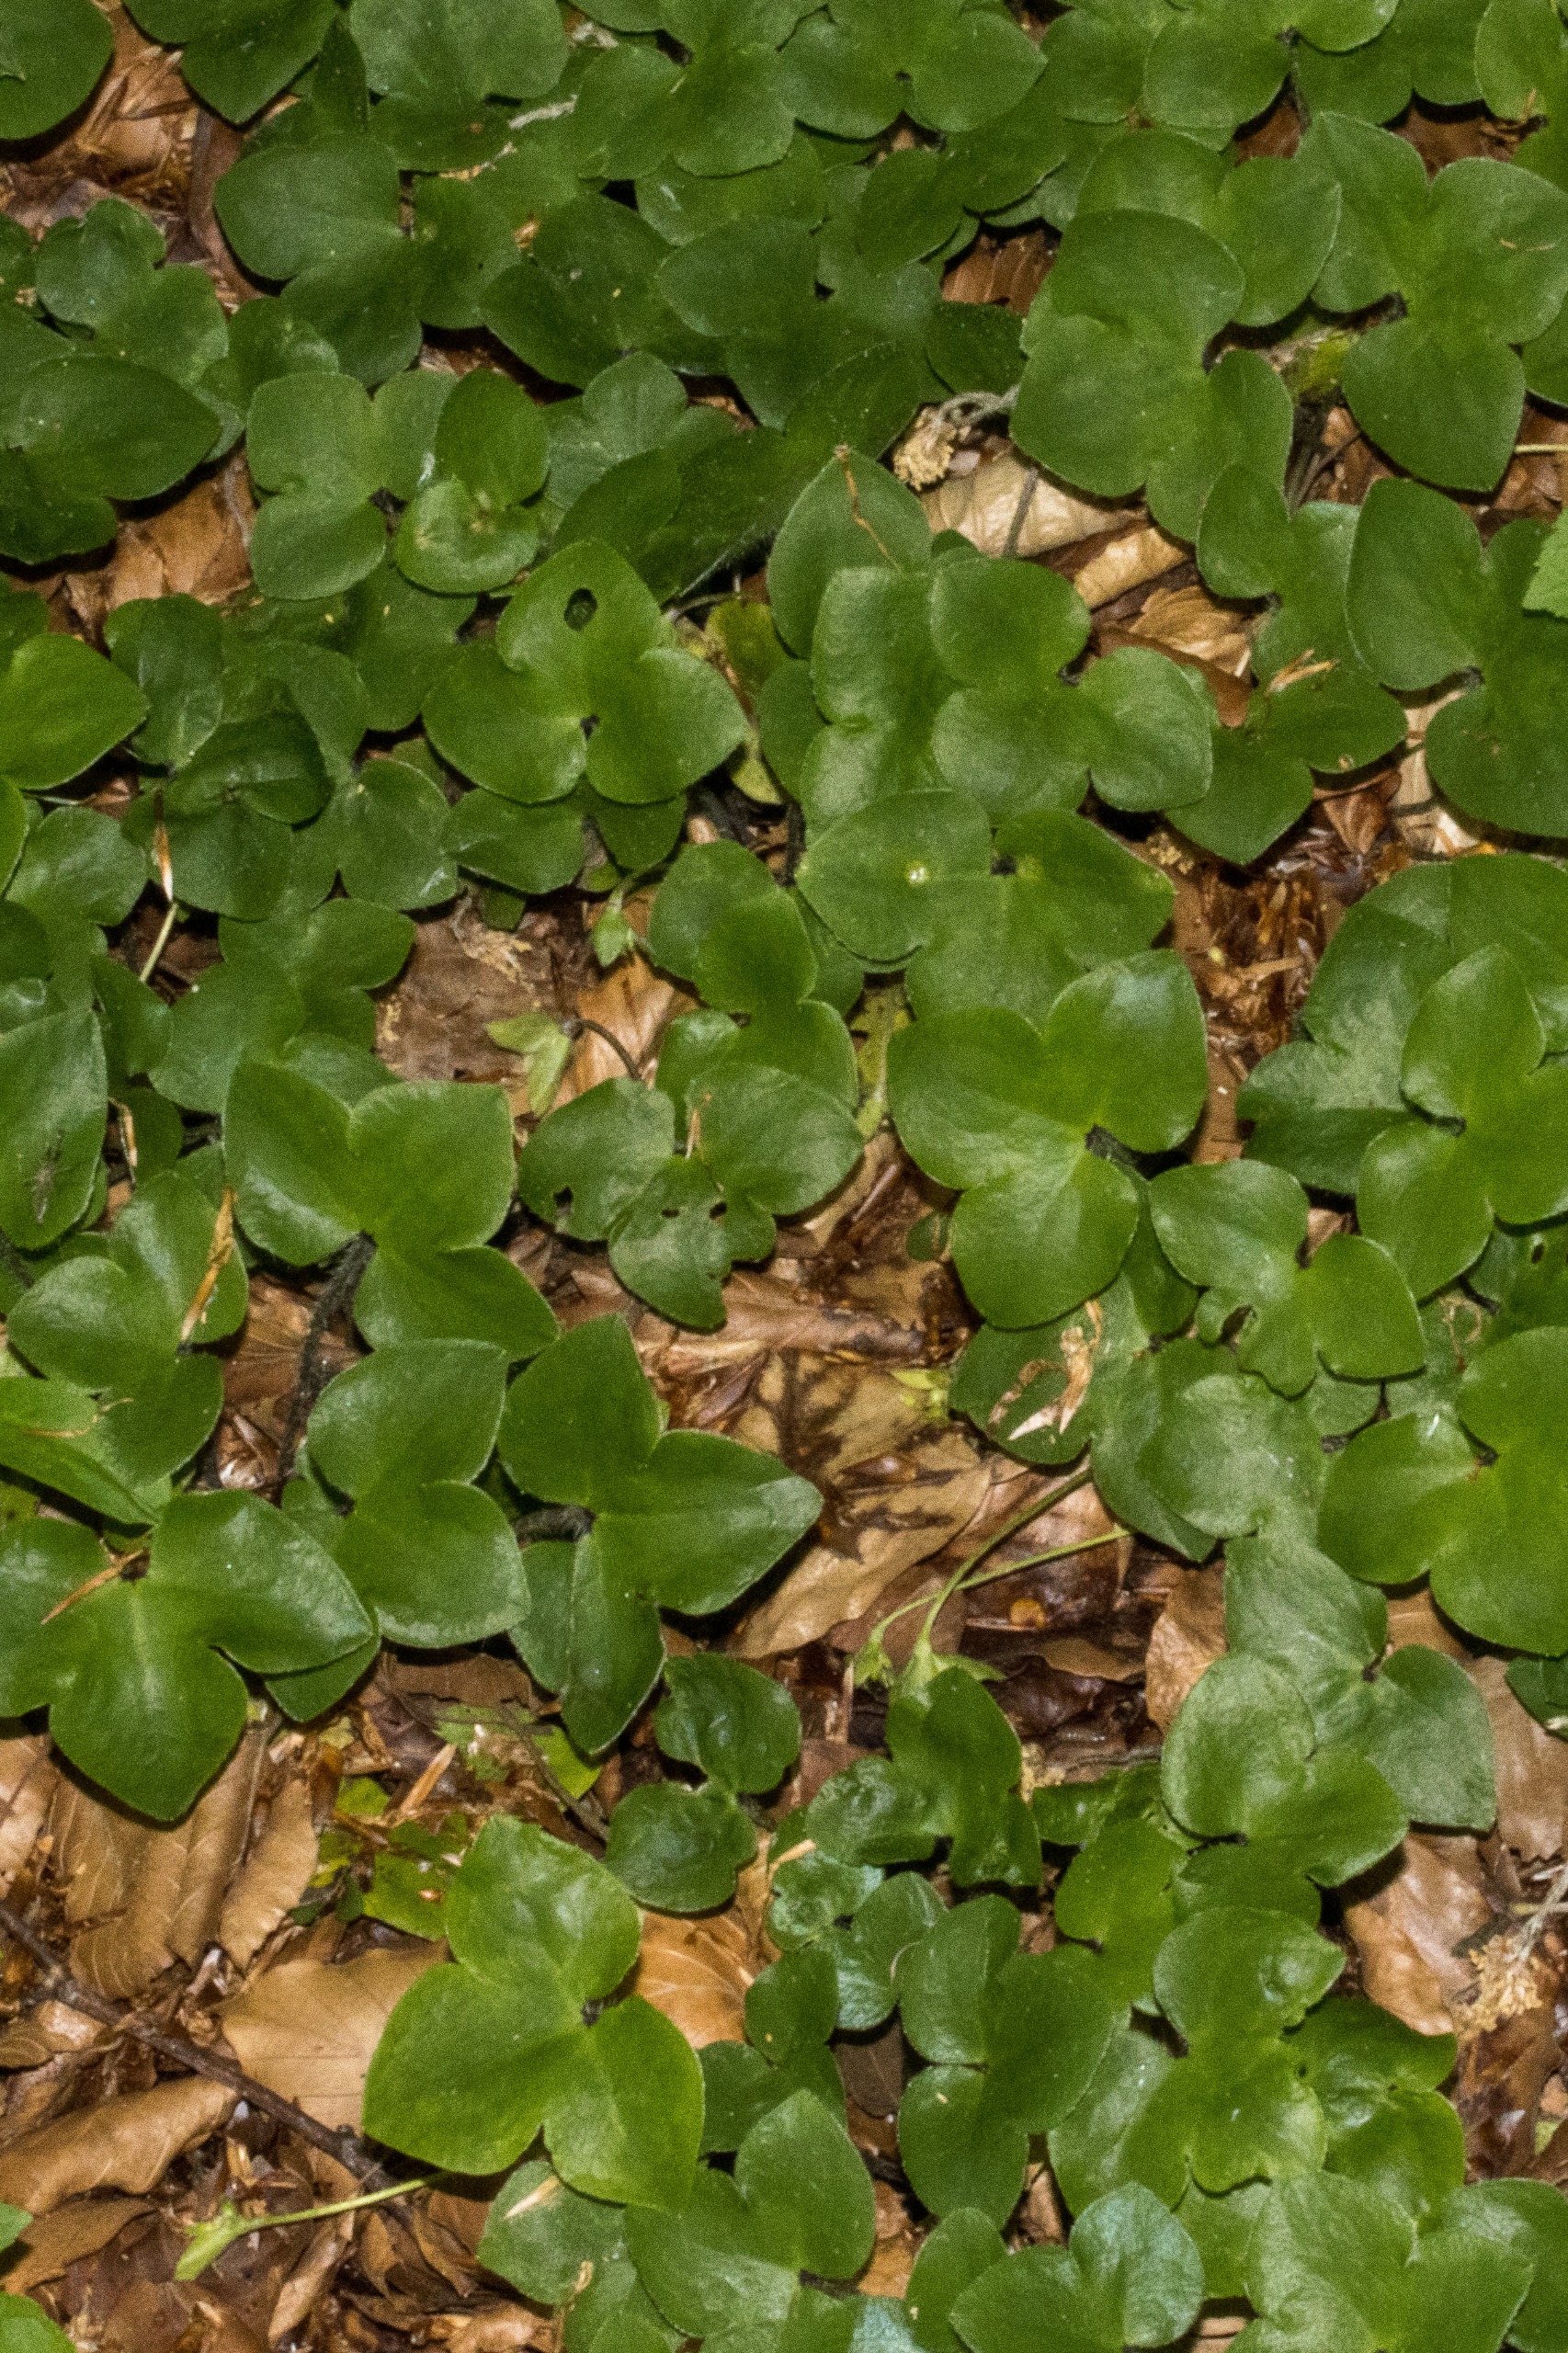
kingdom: Plantae
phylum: Tracheophyta
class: Magnoliopsida
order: Ranunculales
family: Ranunculaceae
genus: Hepatica
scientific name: Hepatica nobilis
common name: Blå anemone
